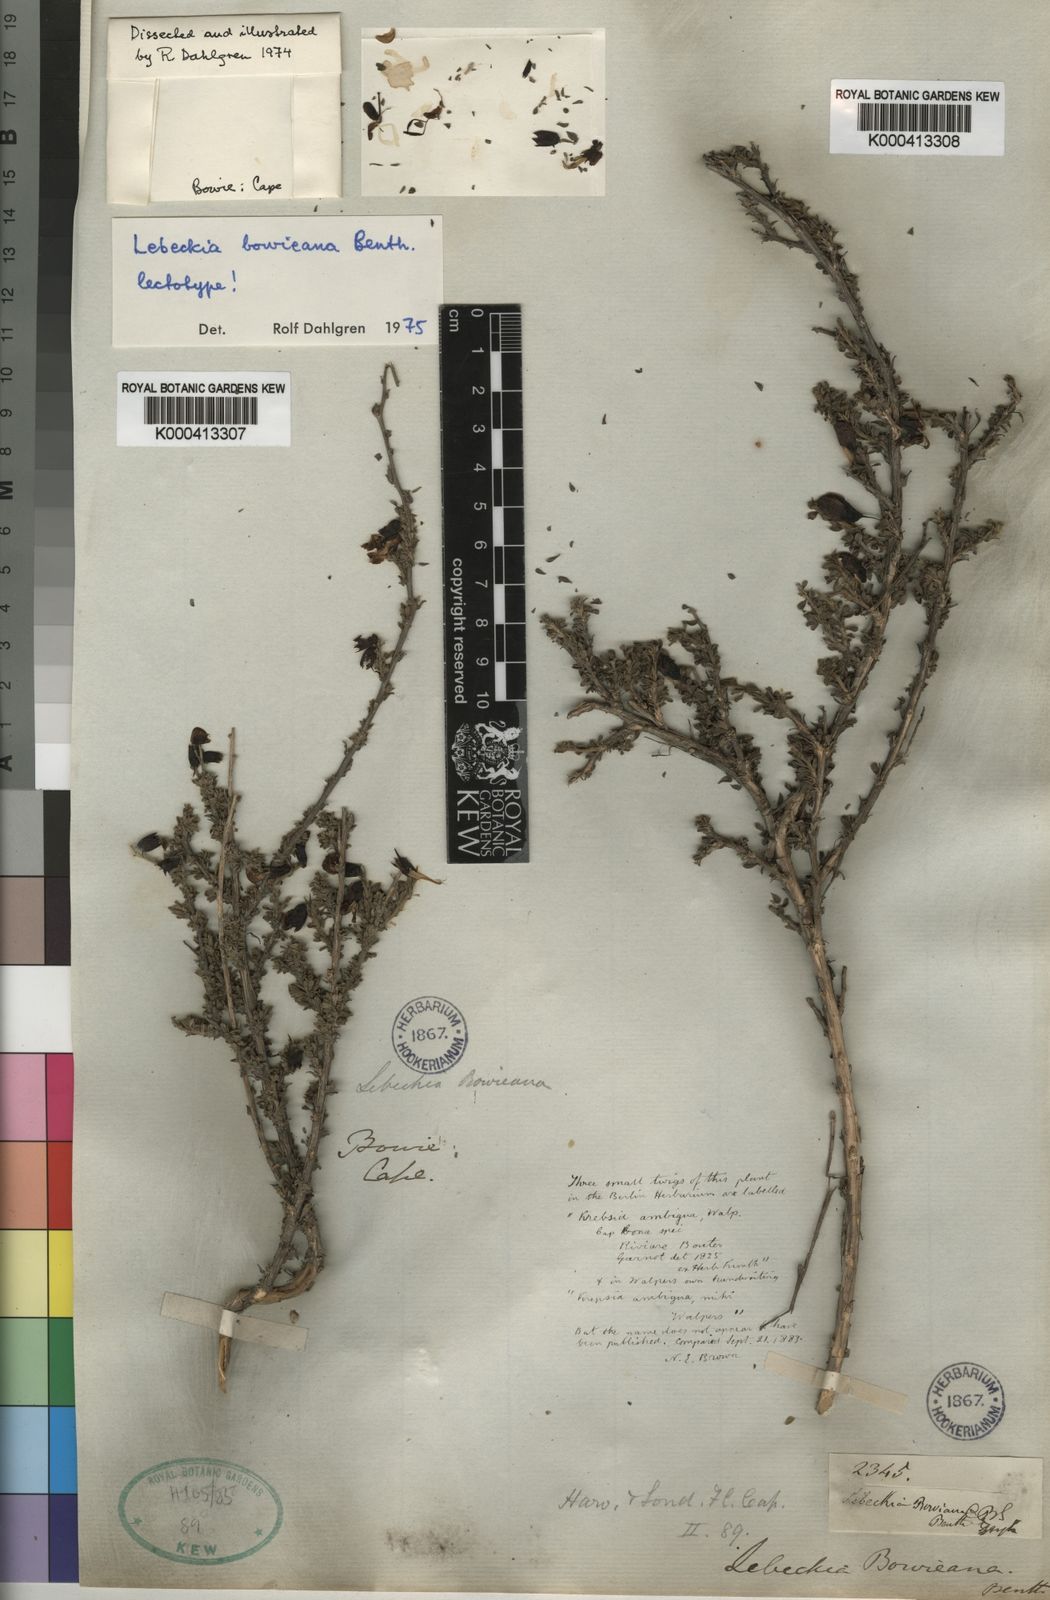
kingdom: Plantae
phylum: Tracheophyta
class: Magnoliopsida
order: Fabales
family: Fabaceae
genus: Wiborgiella
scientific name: Wiborgiella bowieana
